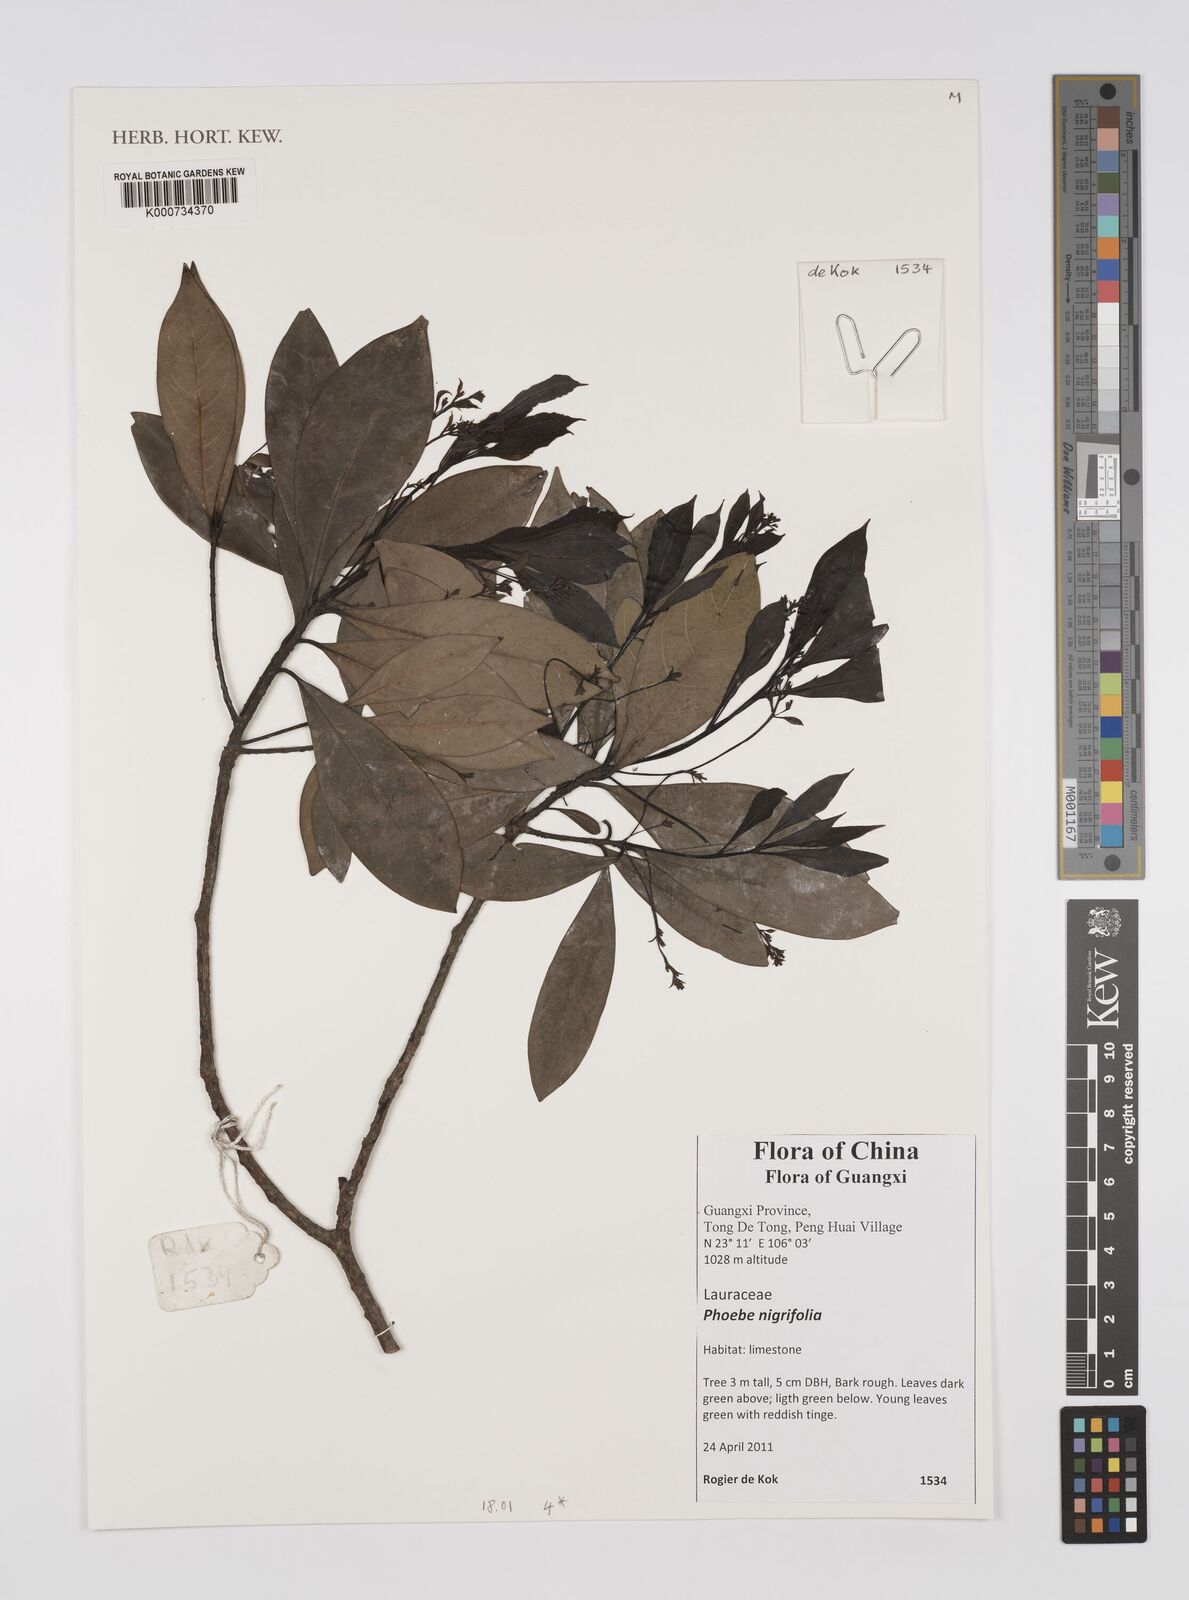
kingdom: Plantae
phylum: Tracheophyta
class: Magnoliopsida
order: Laurales
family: Lauraceae
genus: Phoebe
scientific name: Phoebe nigrifolia
